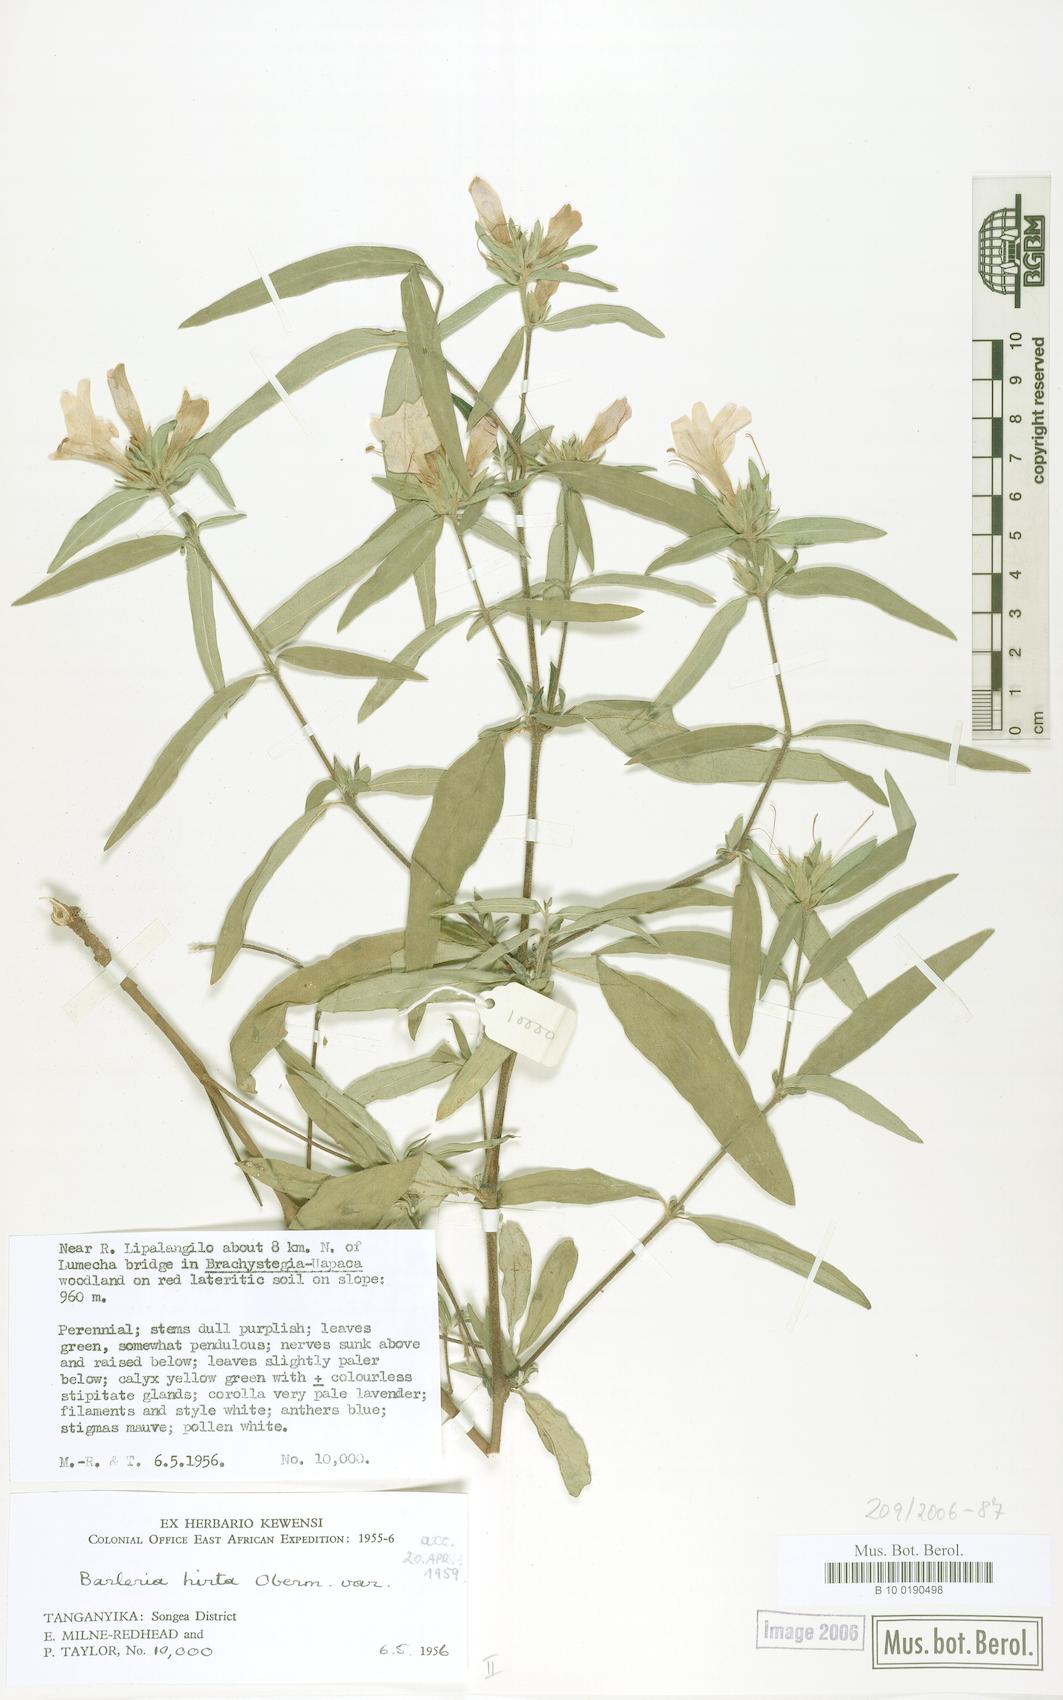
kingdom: Plantae
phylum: Tracheophyta
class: Magnoliopsida
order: Lamiales
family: Acanthaceae
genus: Barleria
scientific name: Barleria hirta
